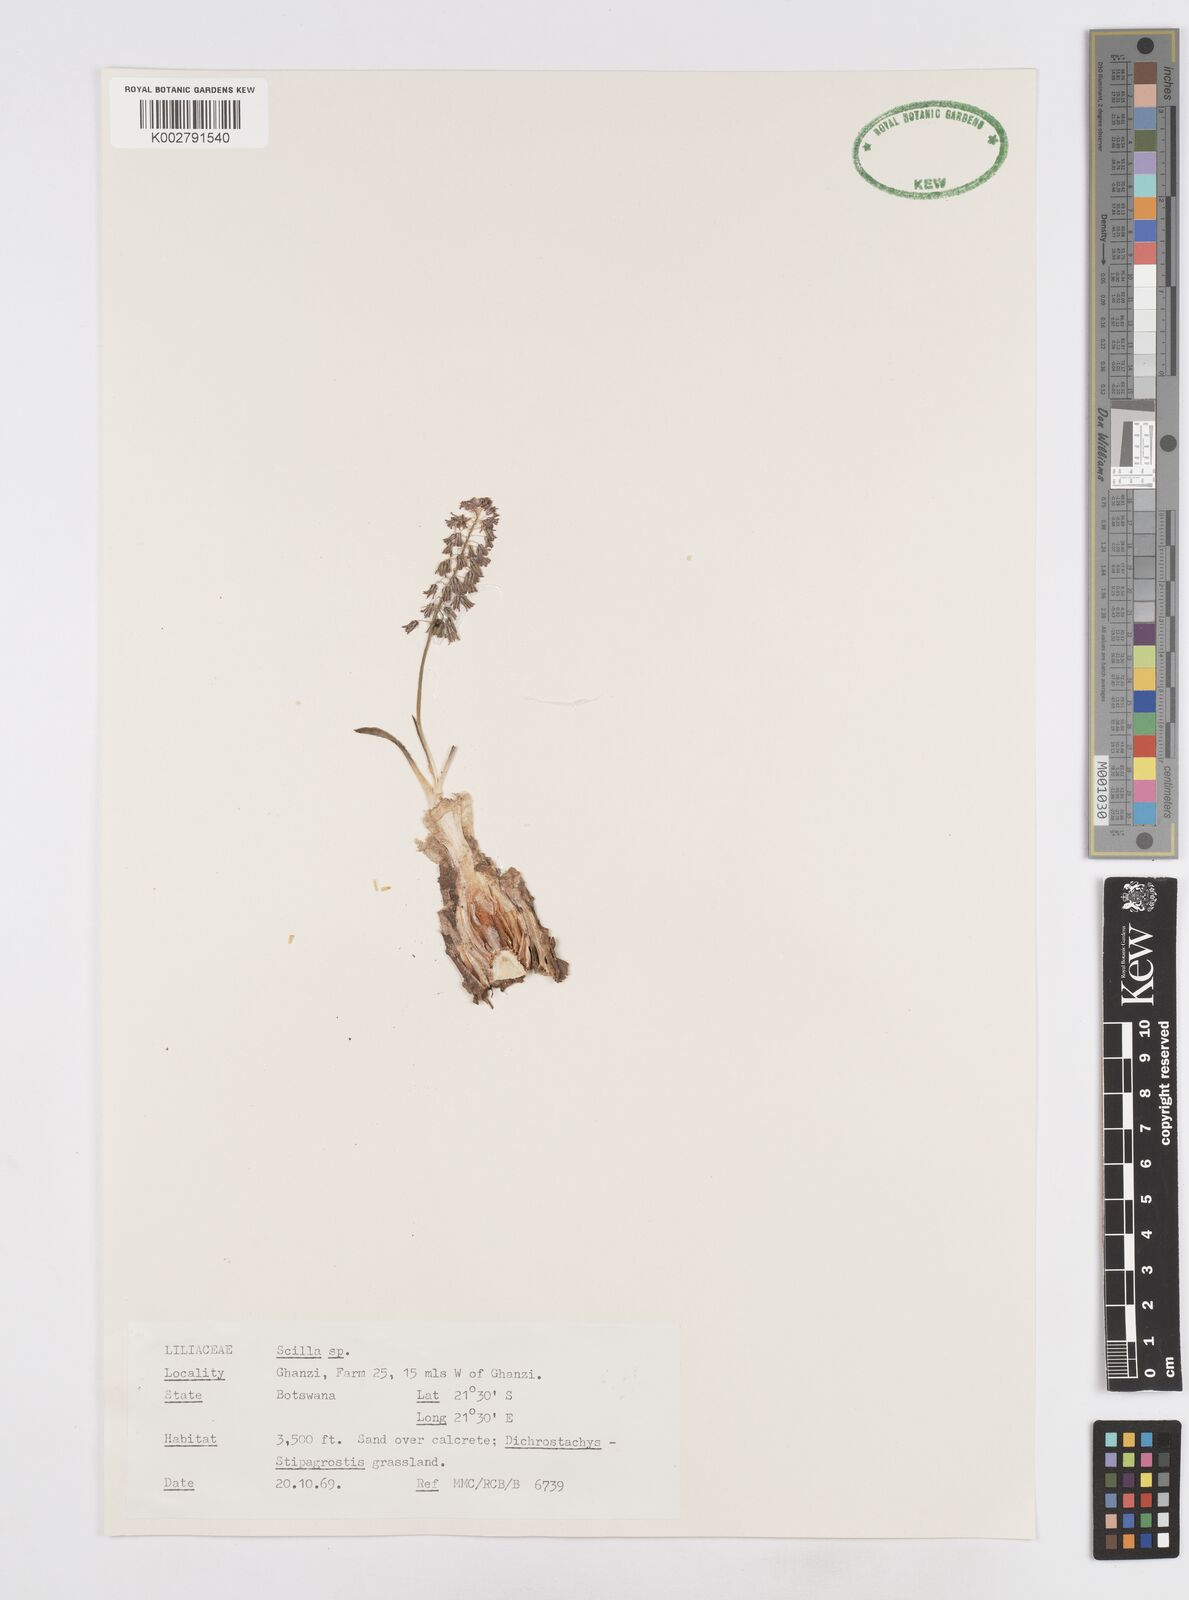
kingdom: Plantae
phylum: Tracheophyta
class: Liliopsida
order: Asparagales
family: Asparagaceae
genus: Scilla
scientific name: Scilla
